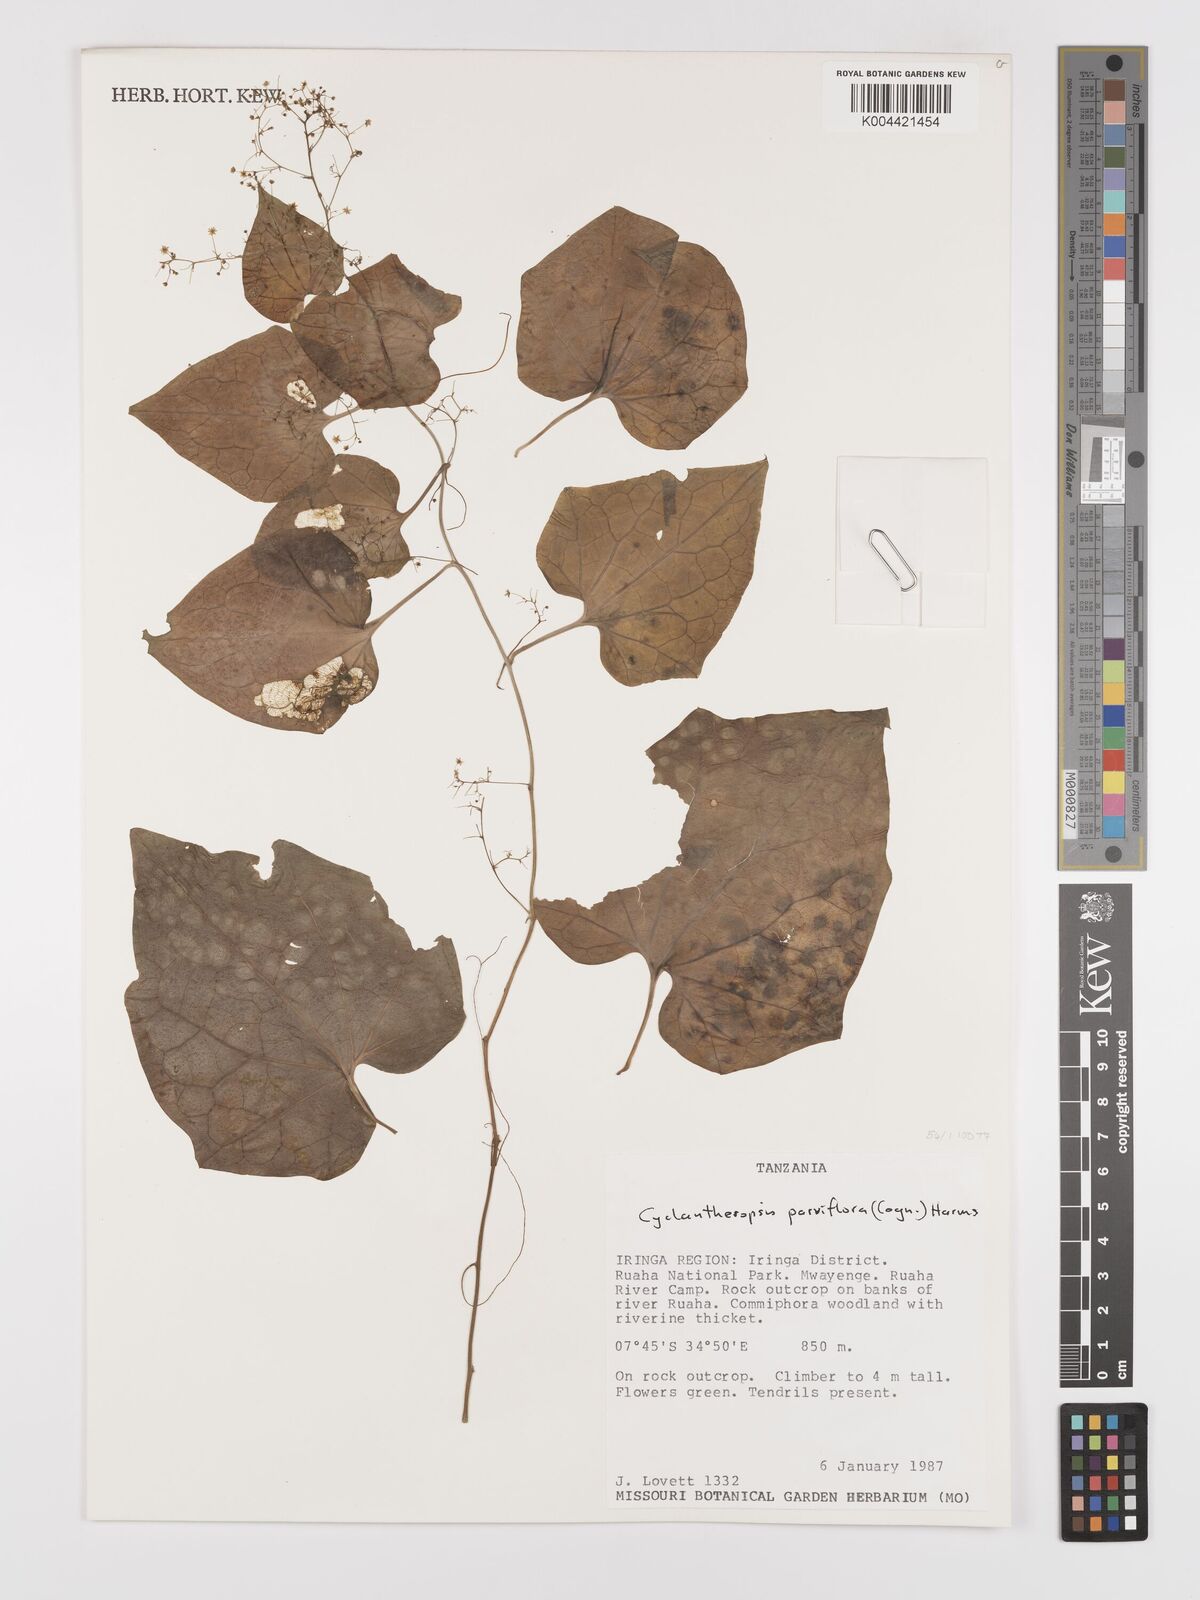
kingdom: Plantae
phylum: Tracheophyta
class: Magnoliopsida
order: Cucurbitales
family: Cucurbitaceae
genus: Cyclantheropsis
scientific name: Cyclantheropsis parviflora
